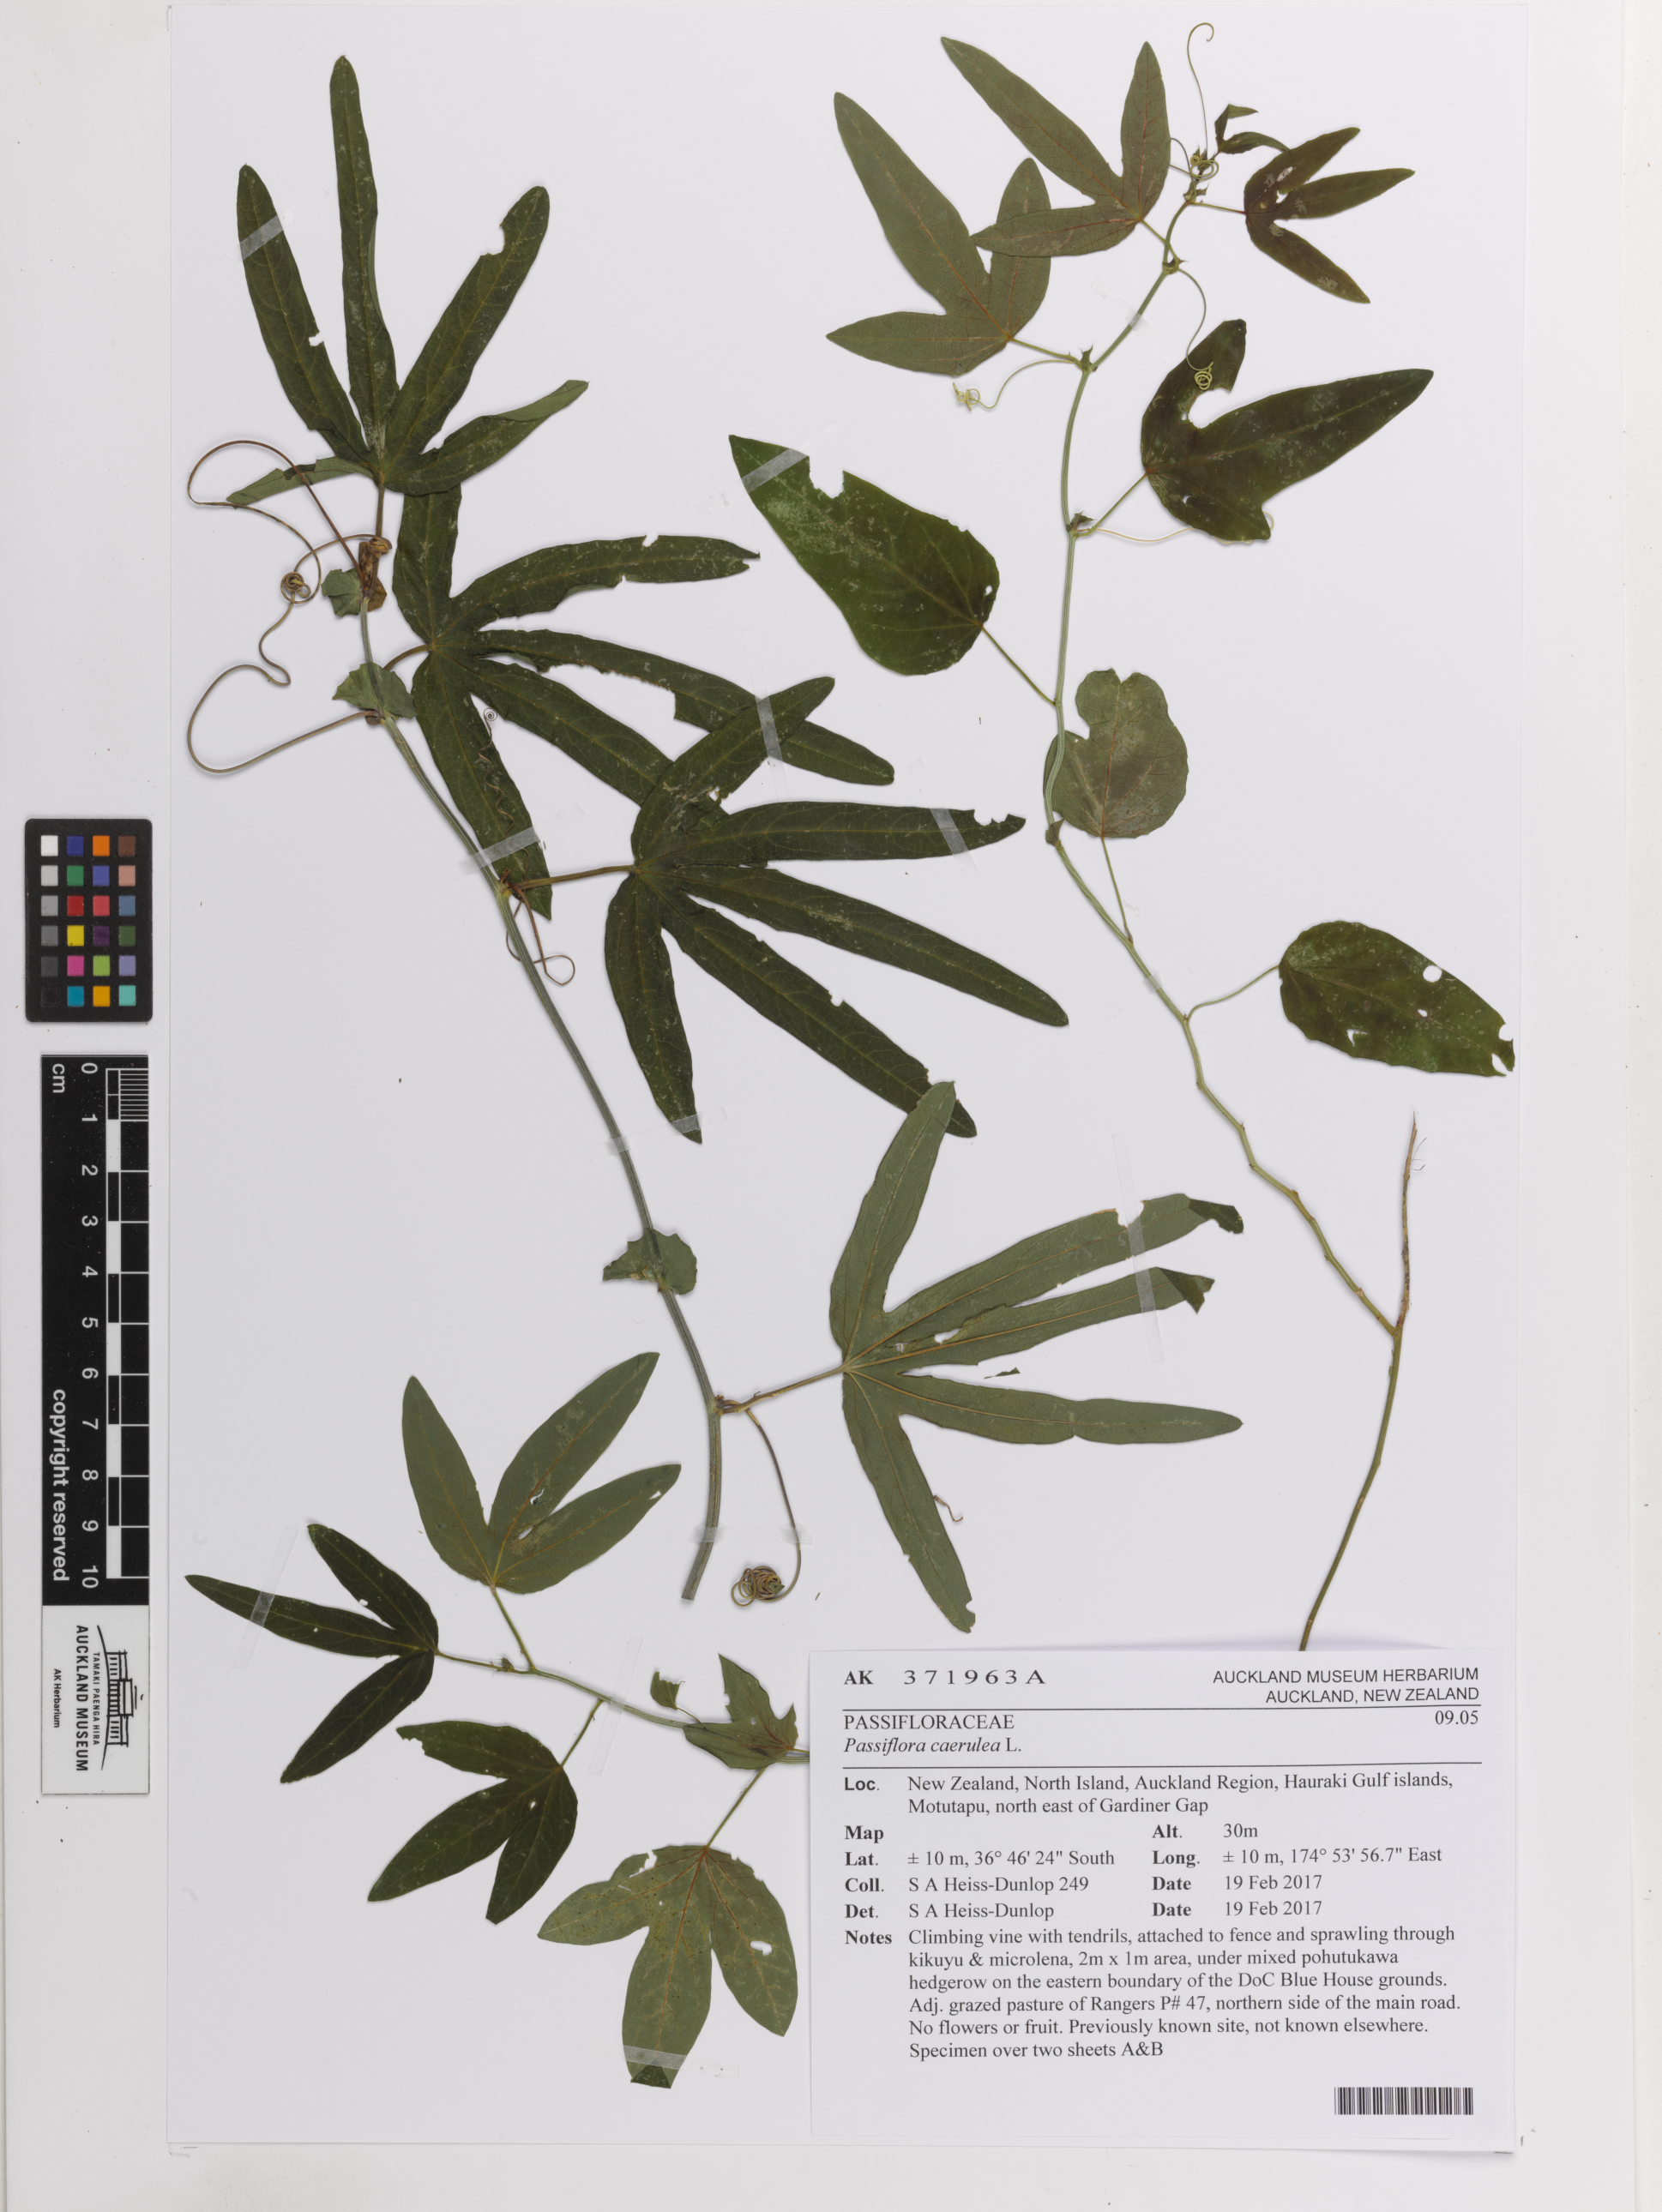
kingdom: Plantae
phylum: Tracheophyta
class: Magnoliopsida
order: Malpighiales
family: Passifloraceae
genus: Passiflora
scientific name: Passiflora caerulea
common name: Blue passionflower
